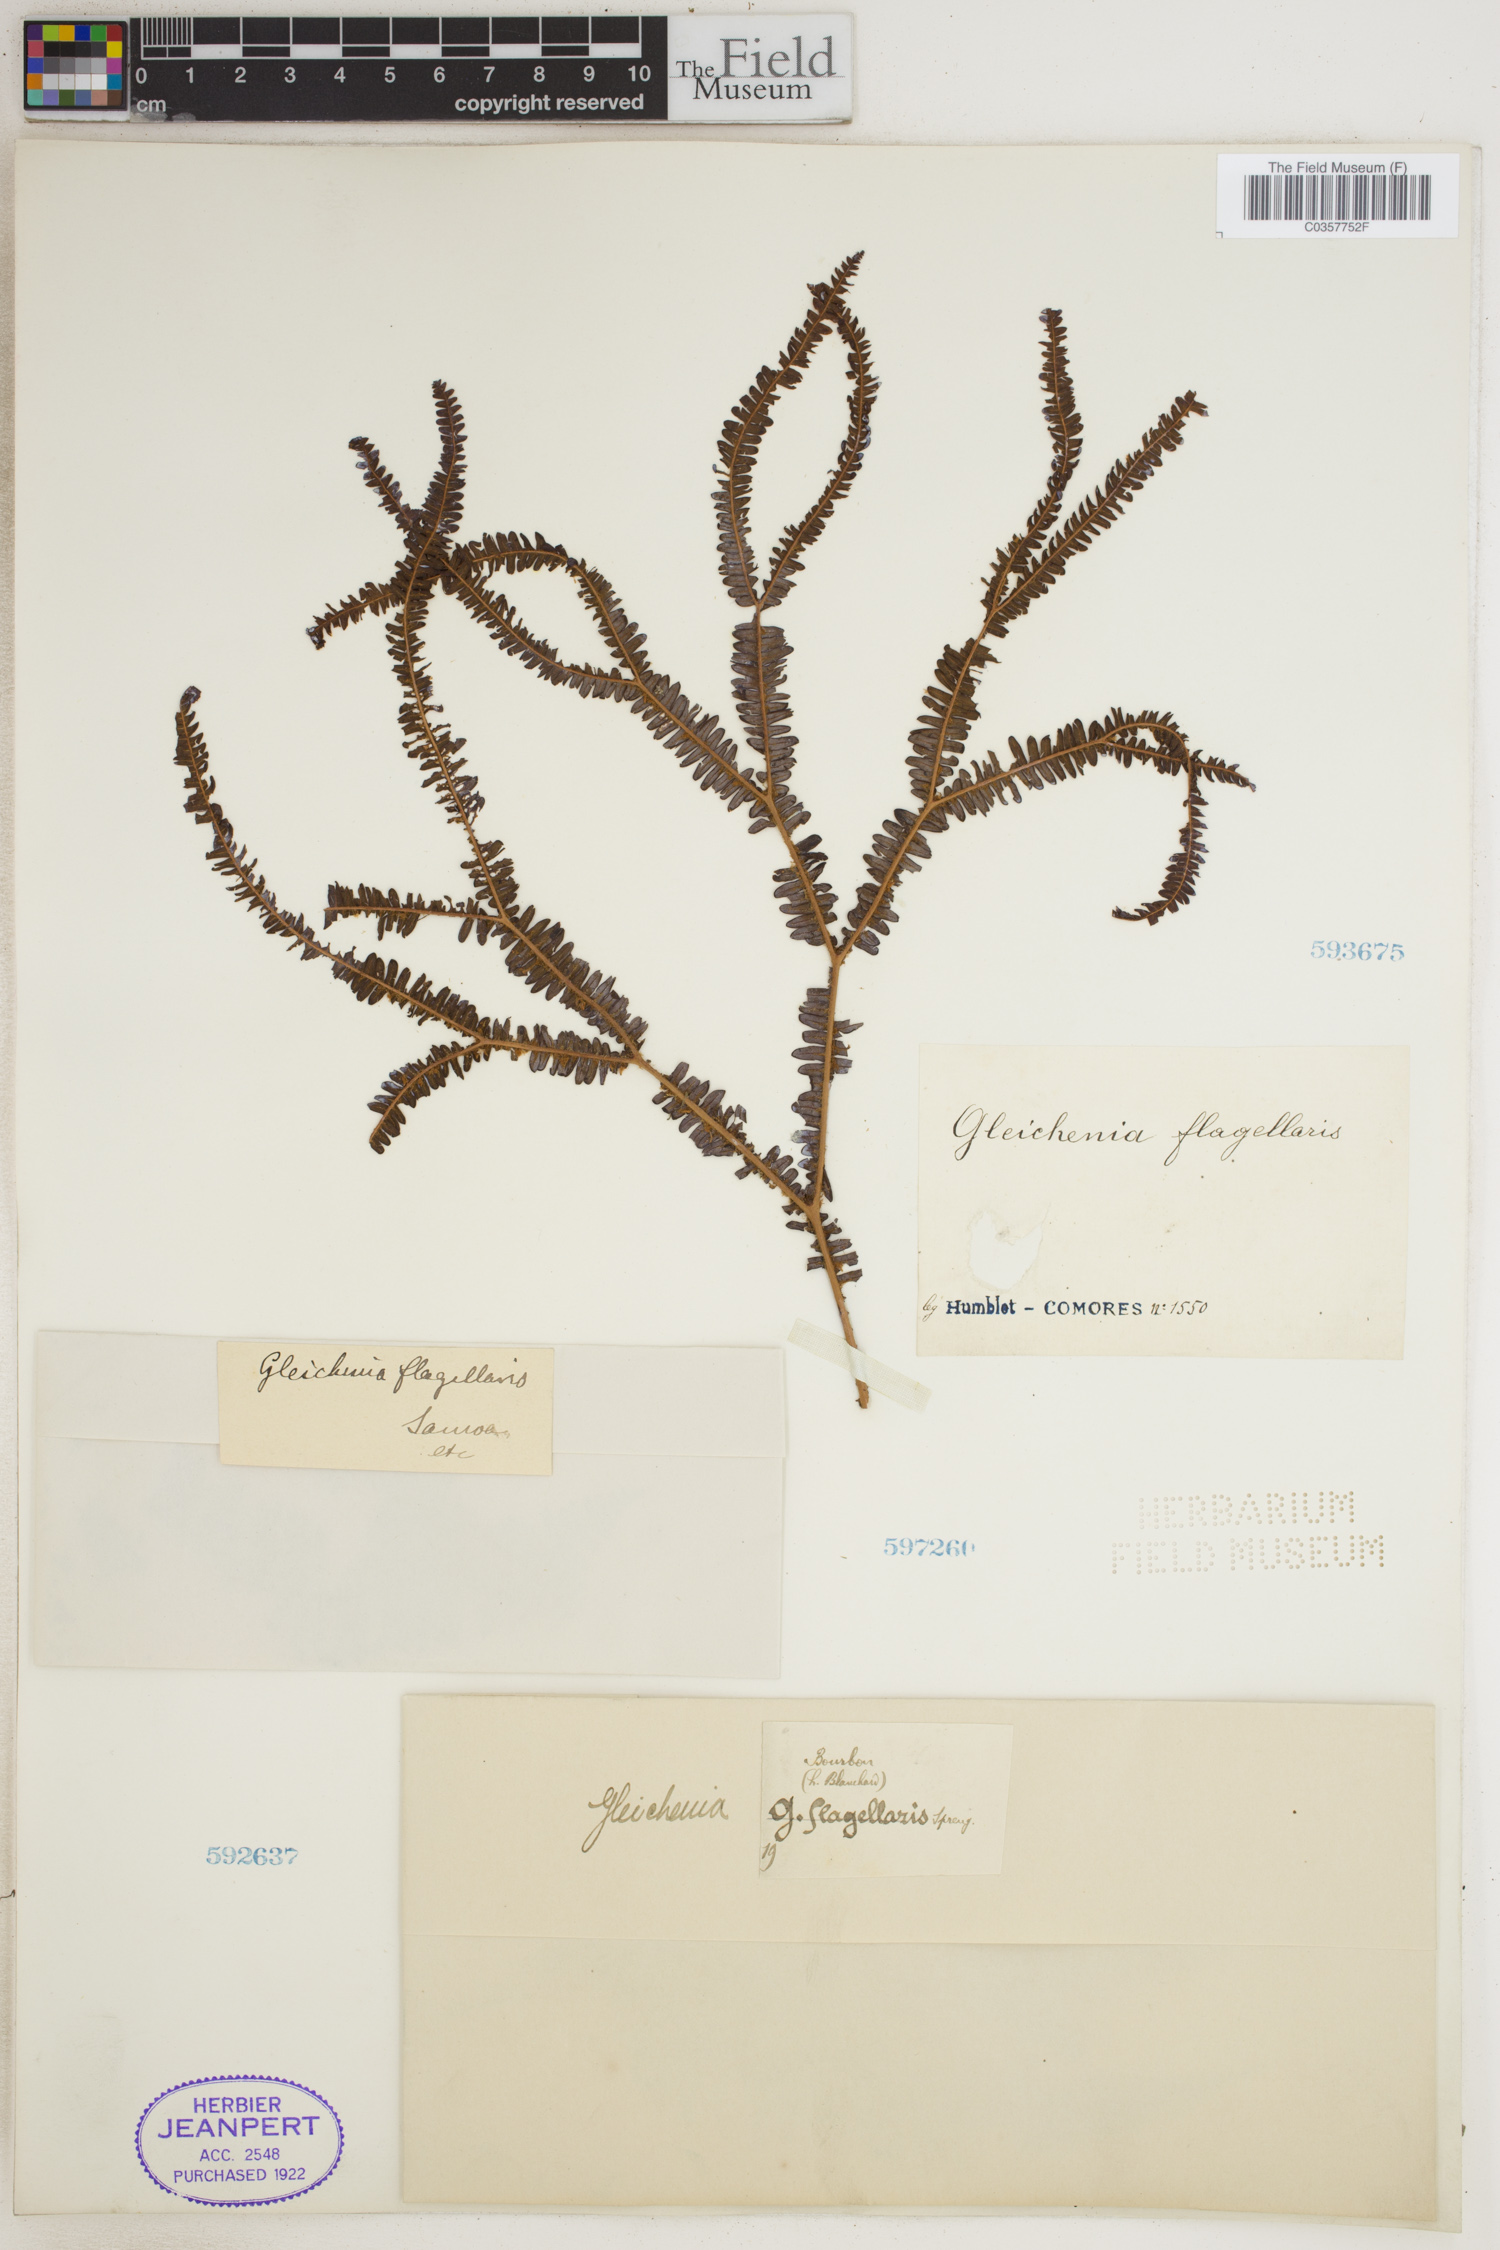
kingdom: Plantae
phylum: Tracheophyta
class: Polypodiopsida
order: Gleicheniales
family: Gleicheniaceae
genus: Sticherus
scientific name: Sticherus flagellaris
